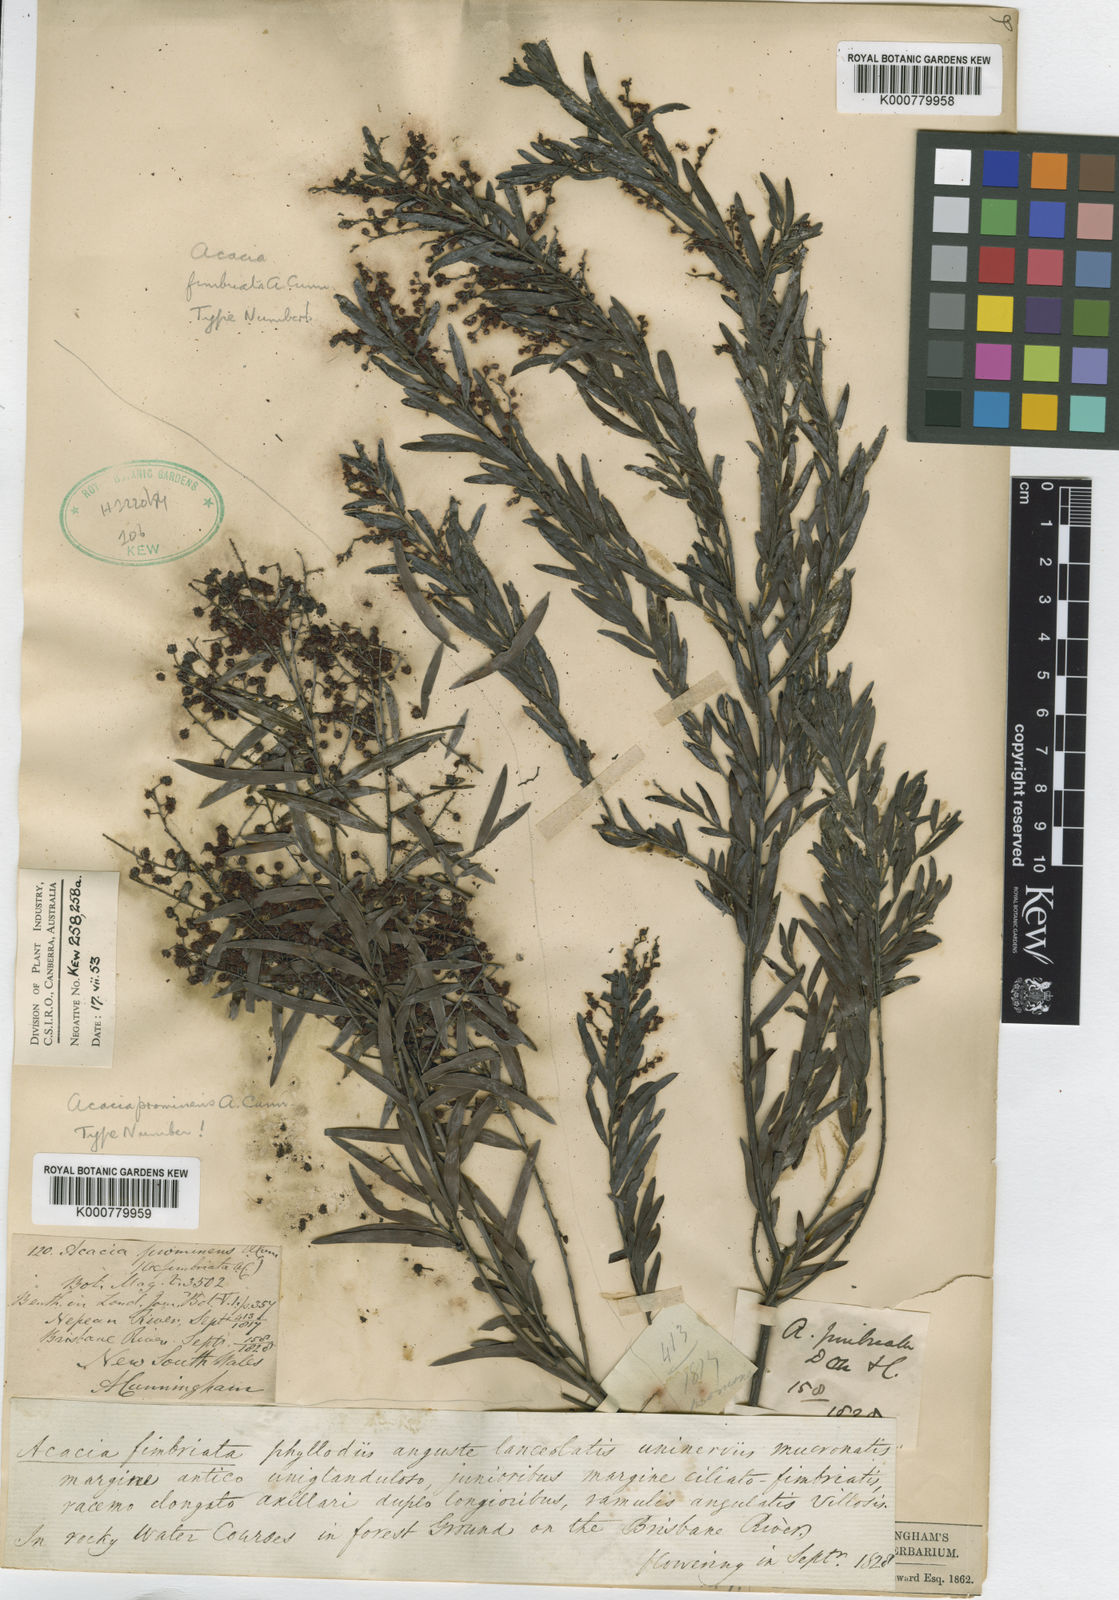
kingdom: Plantae
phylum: Tracheophyta
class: Magnoliopsida
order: Fabales
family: Fabaceae
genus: Acacia
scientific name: Acacia
